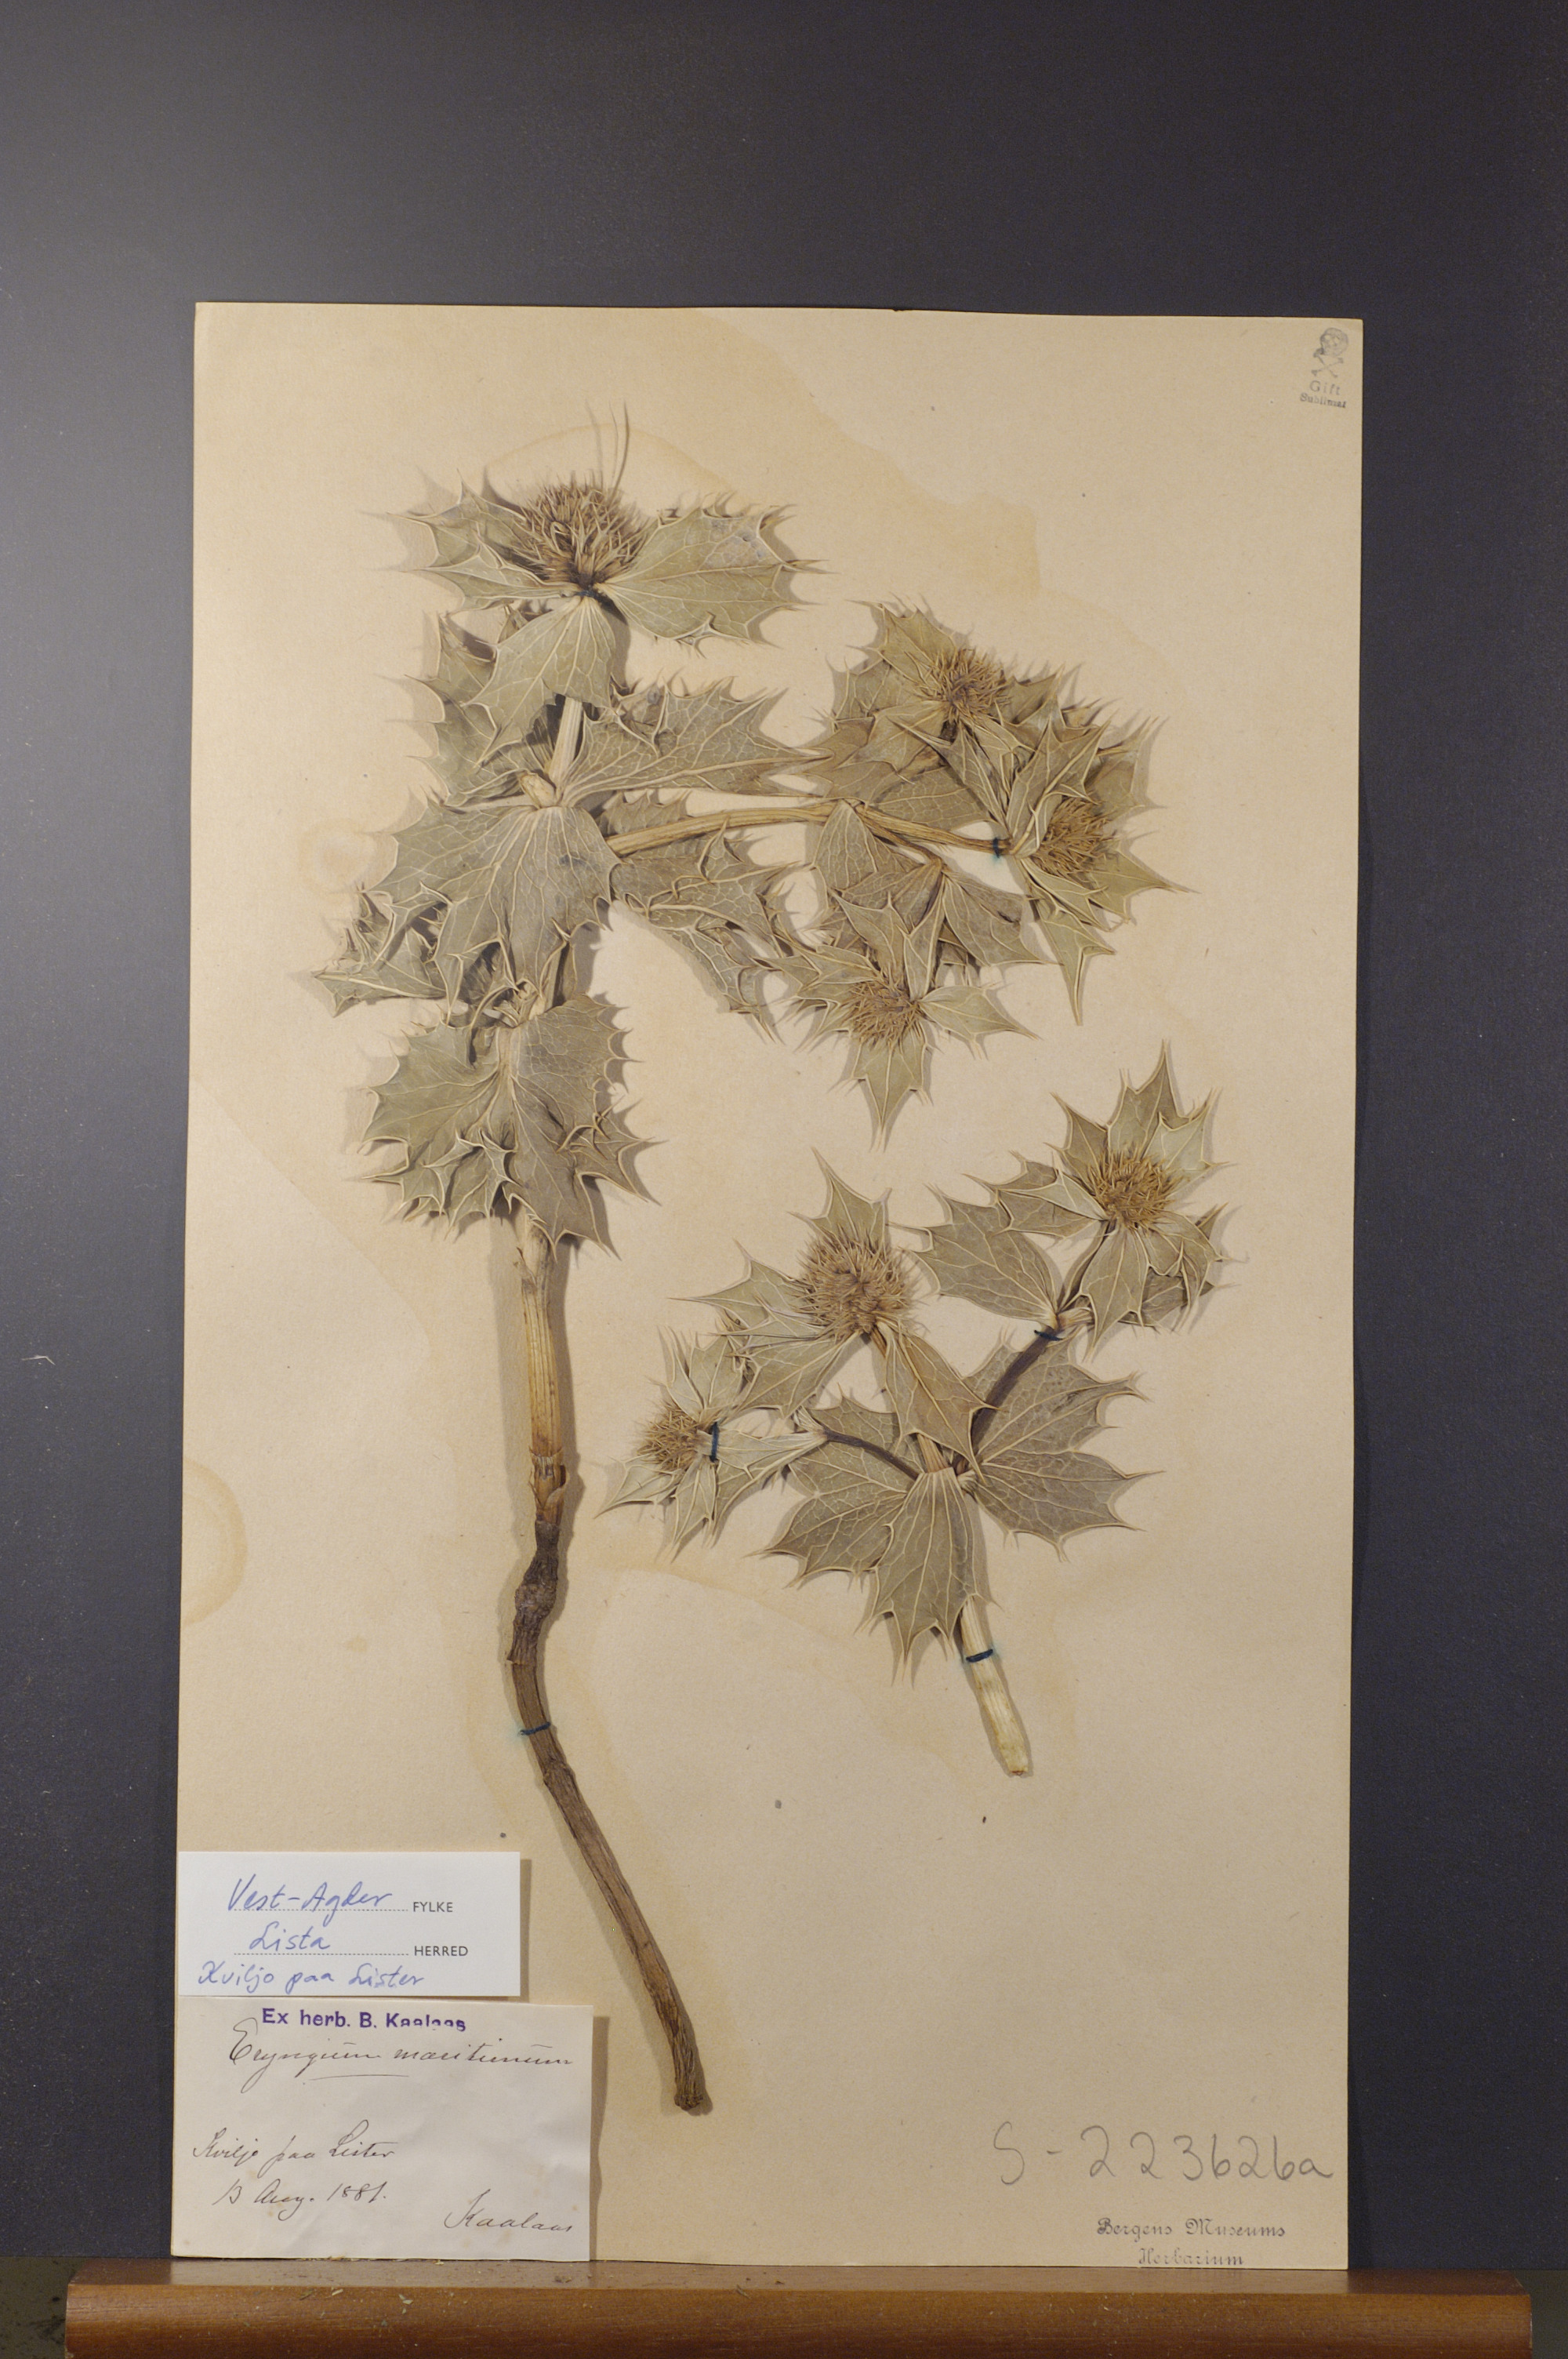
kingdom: Plantae
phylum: Tracheophyta
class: Magnoliopsida
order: Apiales
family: Apiaceae
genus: Eryngium
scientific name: Eryngium maritimum
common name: Sea-holly
